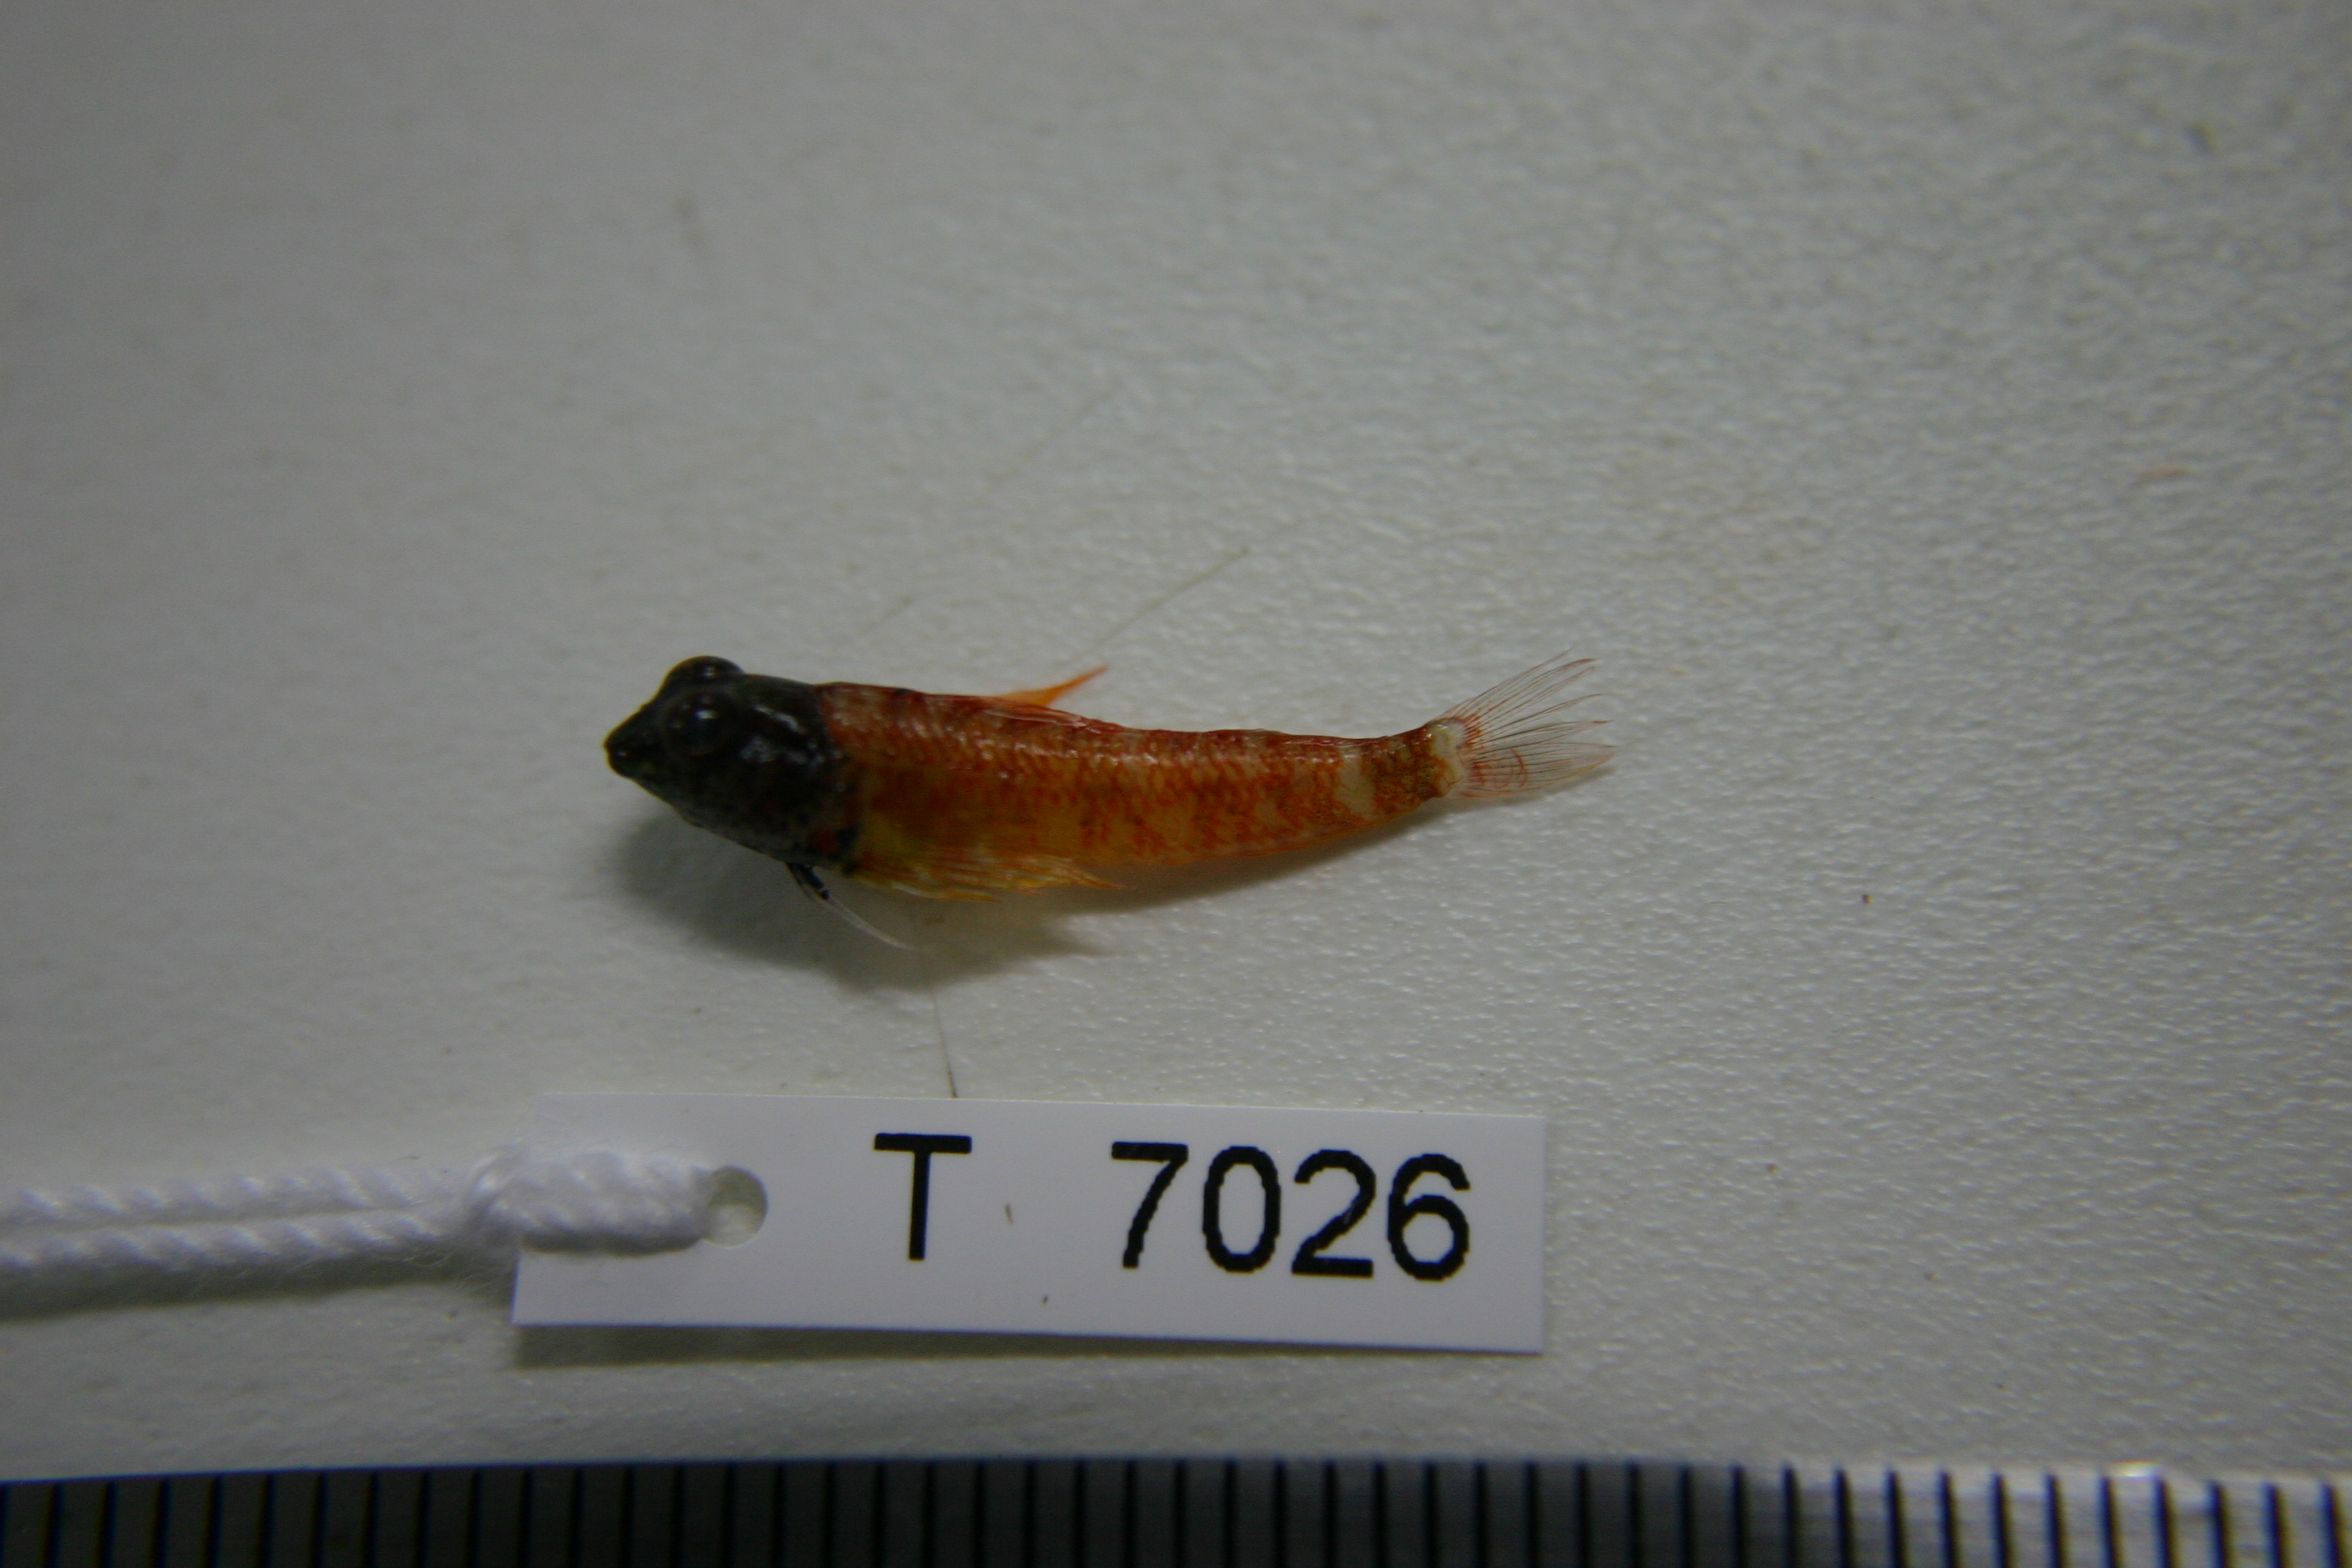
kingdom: Animalia
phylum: Chordata
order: Perciformes
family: Tripterygiidae
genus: Enneapterygius
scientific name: Enneapterygius abeli
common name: Yellow triplefin
